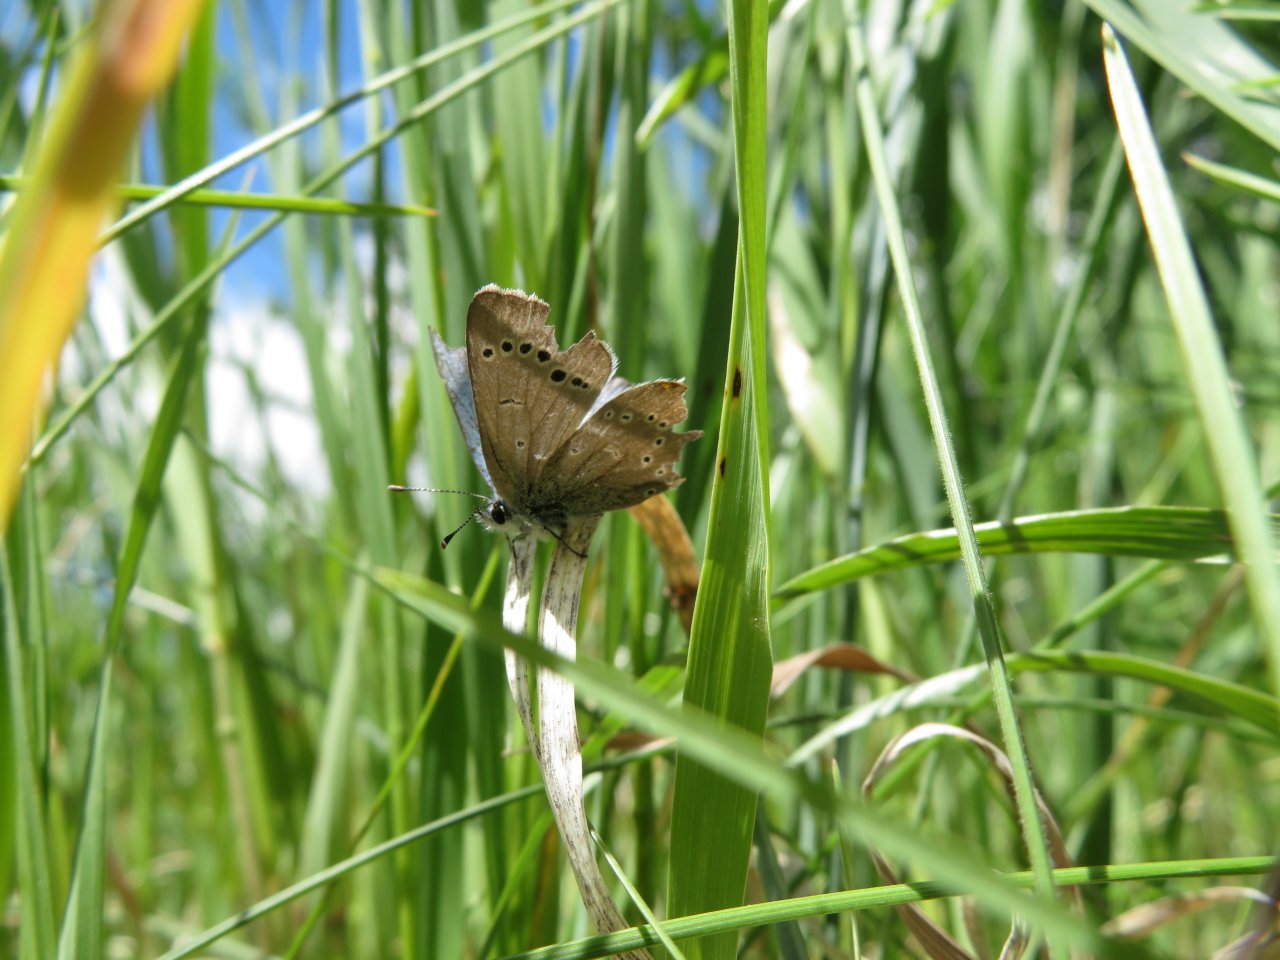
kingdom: Animalia
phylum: Arthropoda
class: Insecta
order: Lepidoptera
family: Lycaenidae
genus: Glaucopsyche
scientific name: Glaucopsyche lygdamus
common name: Silvery Blue
